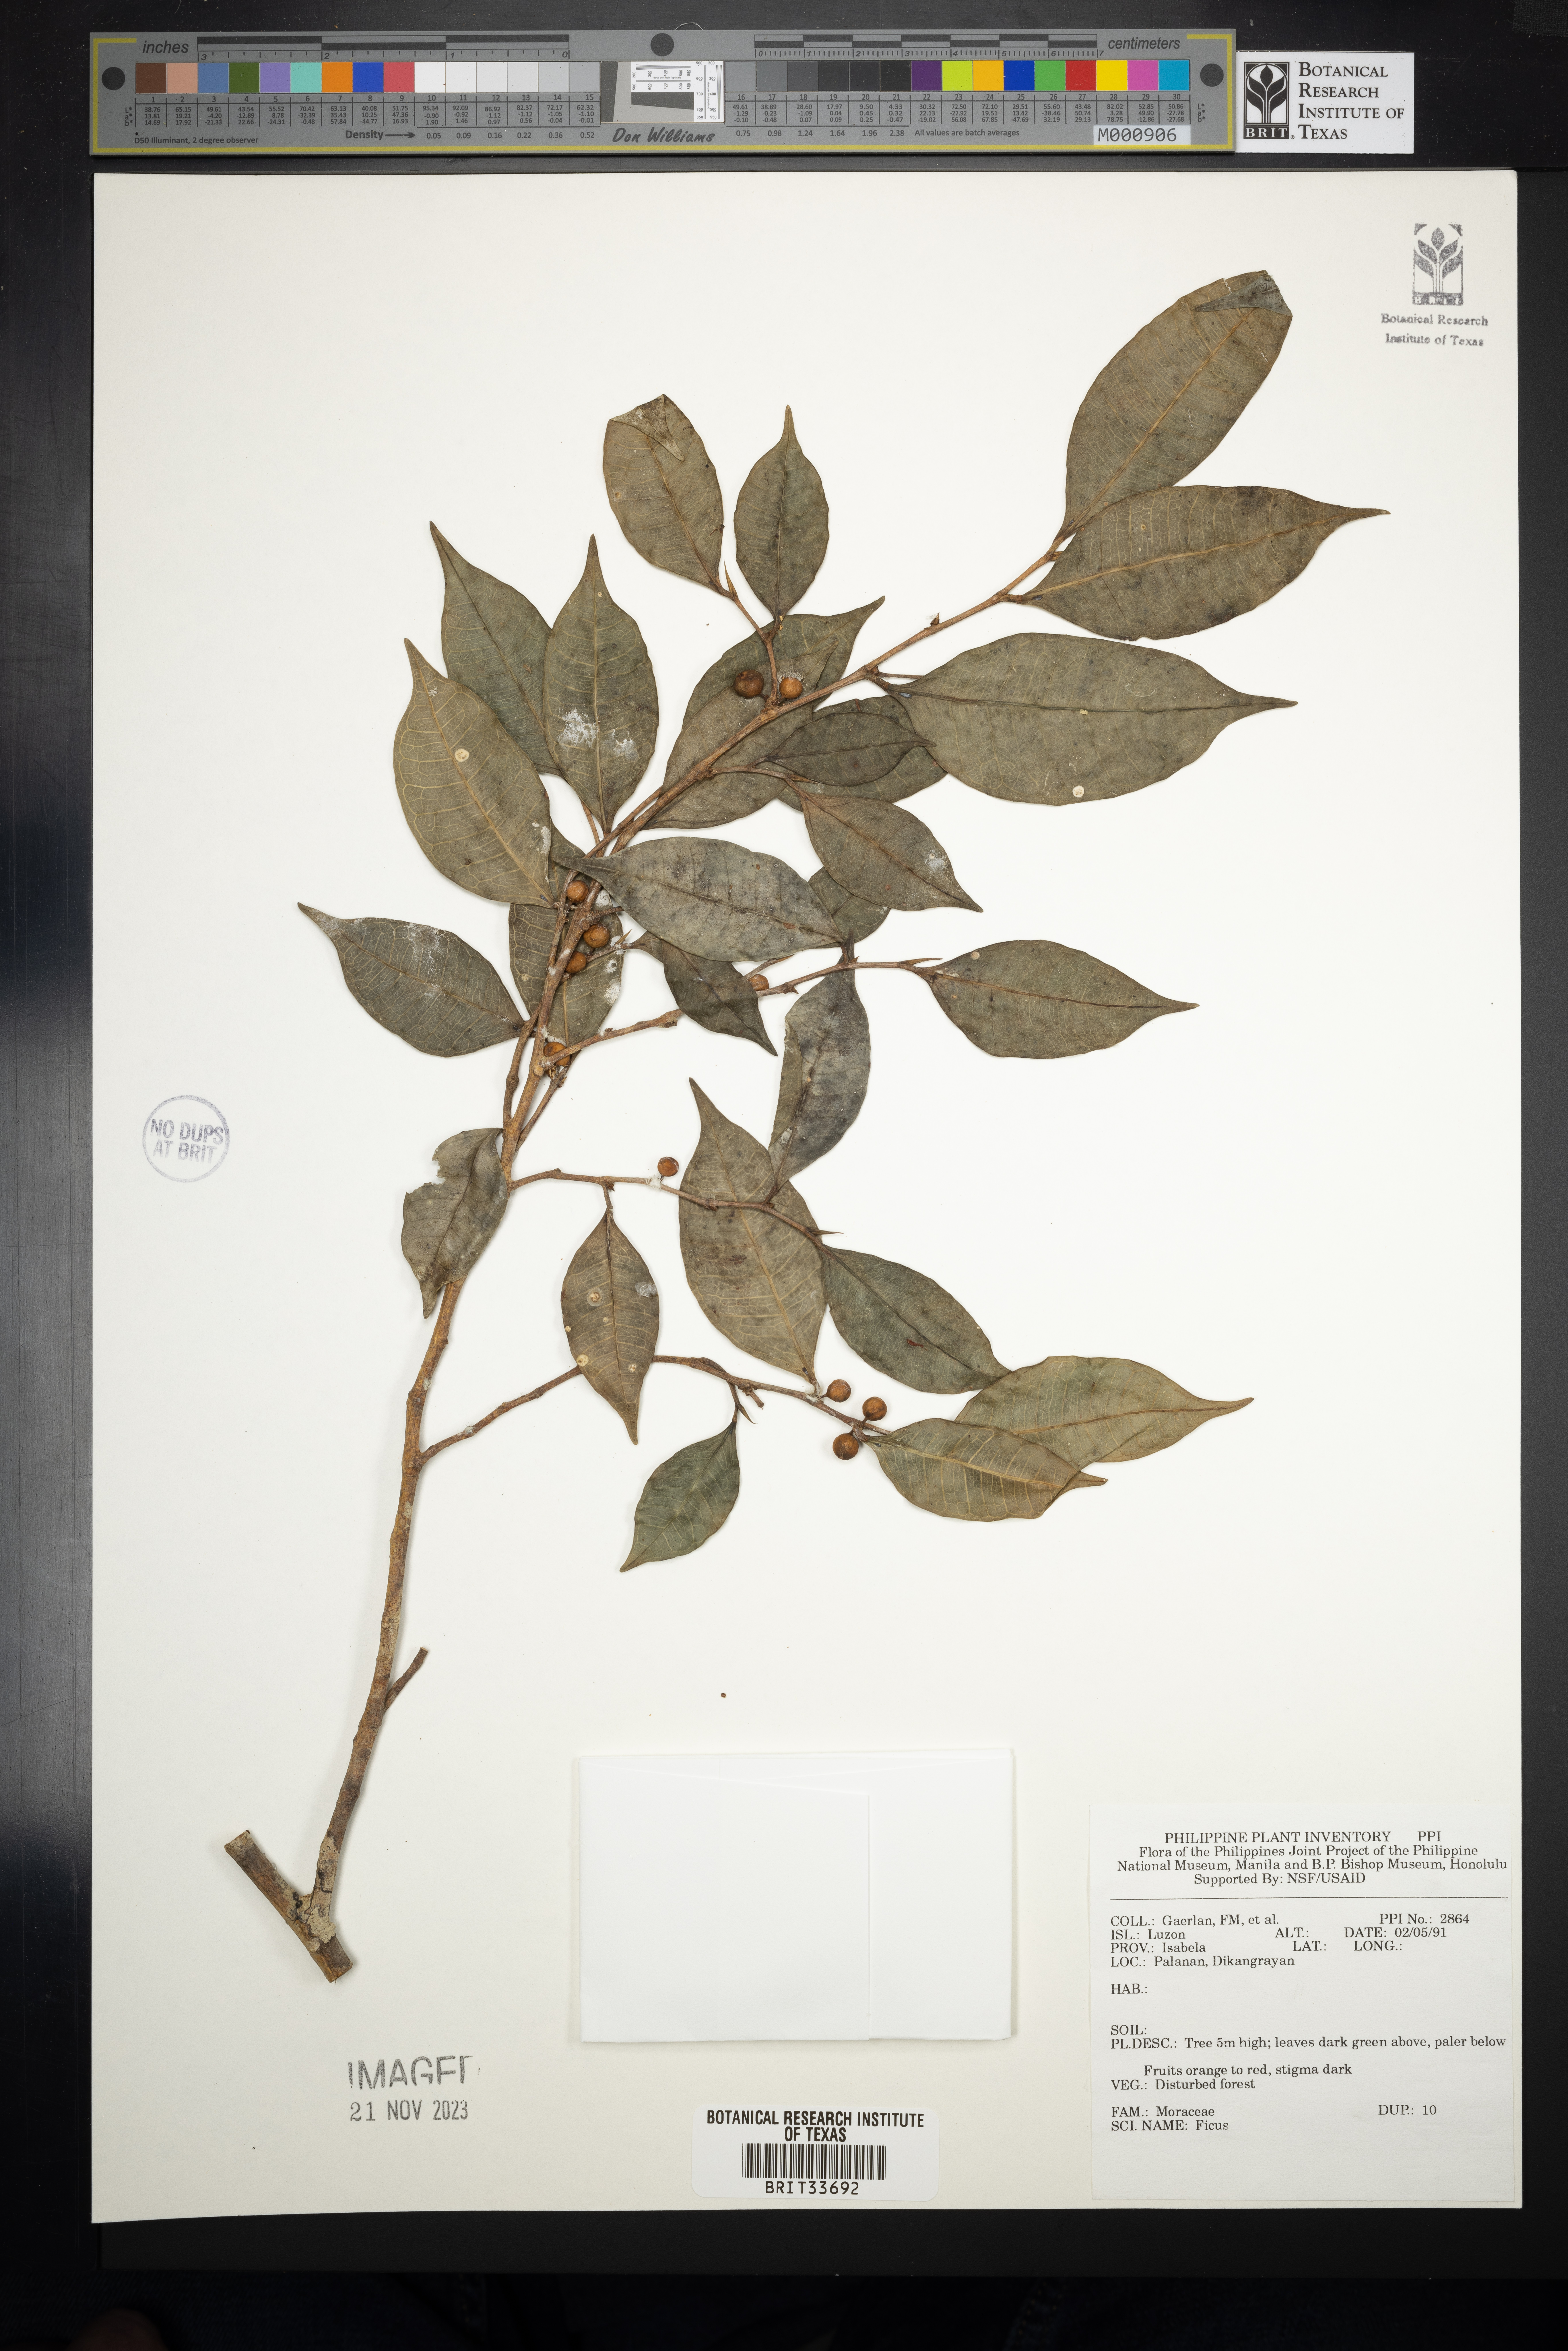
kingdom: Plantae
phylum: Tracheophyta
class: Magnoliopsida
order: Rosales
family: Moraceae
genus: Ficus
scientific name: Ficus
